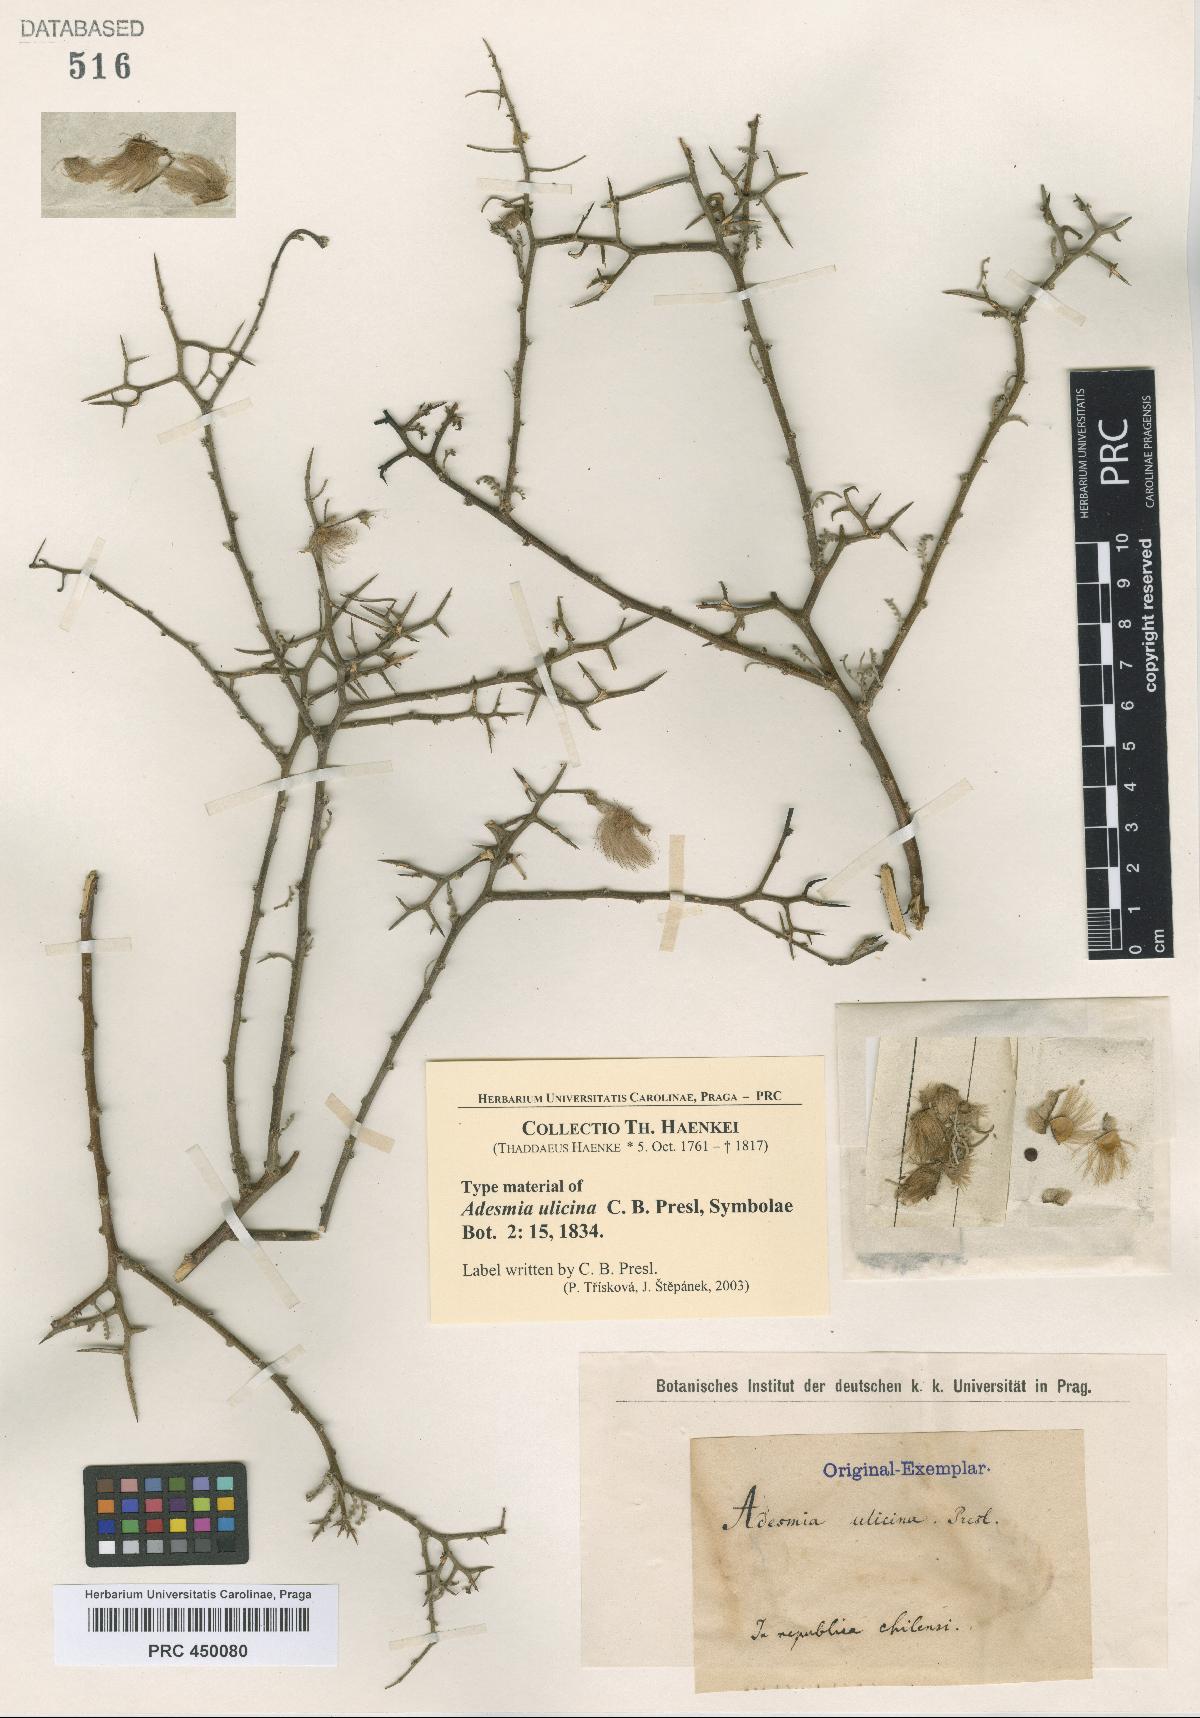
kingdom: Plantae
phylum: Tracheophyta
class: Magnoliopsida
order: Fabales
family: Fabaceae
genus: Adesmia
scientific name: Adesmia pedicellata
